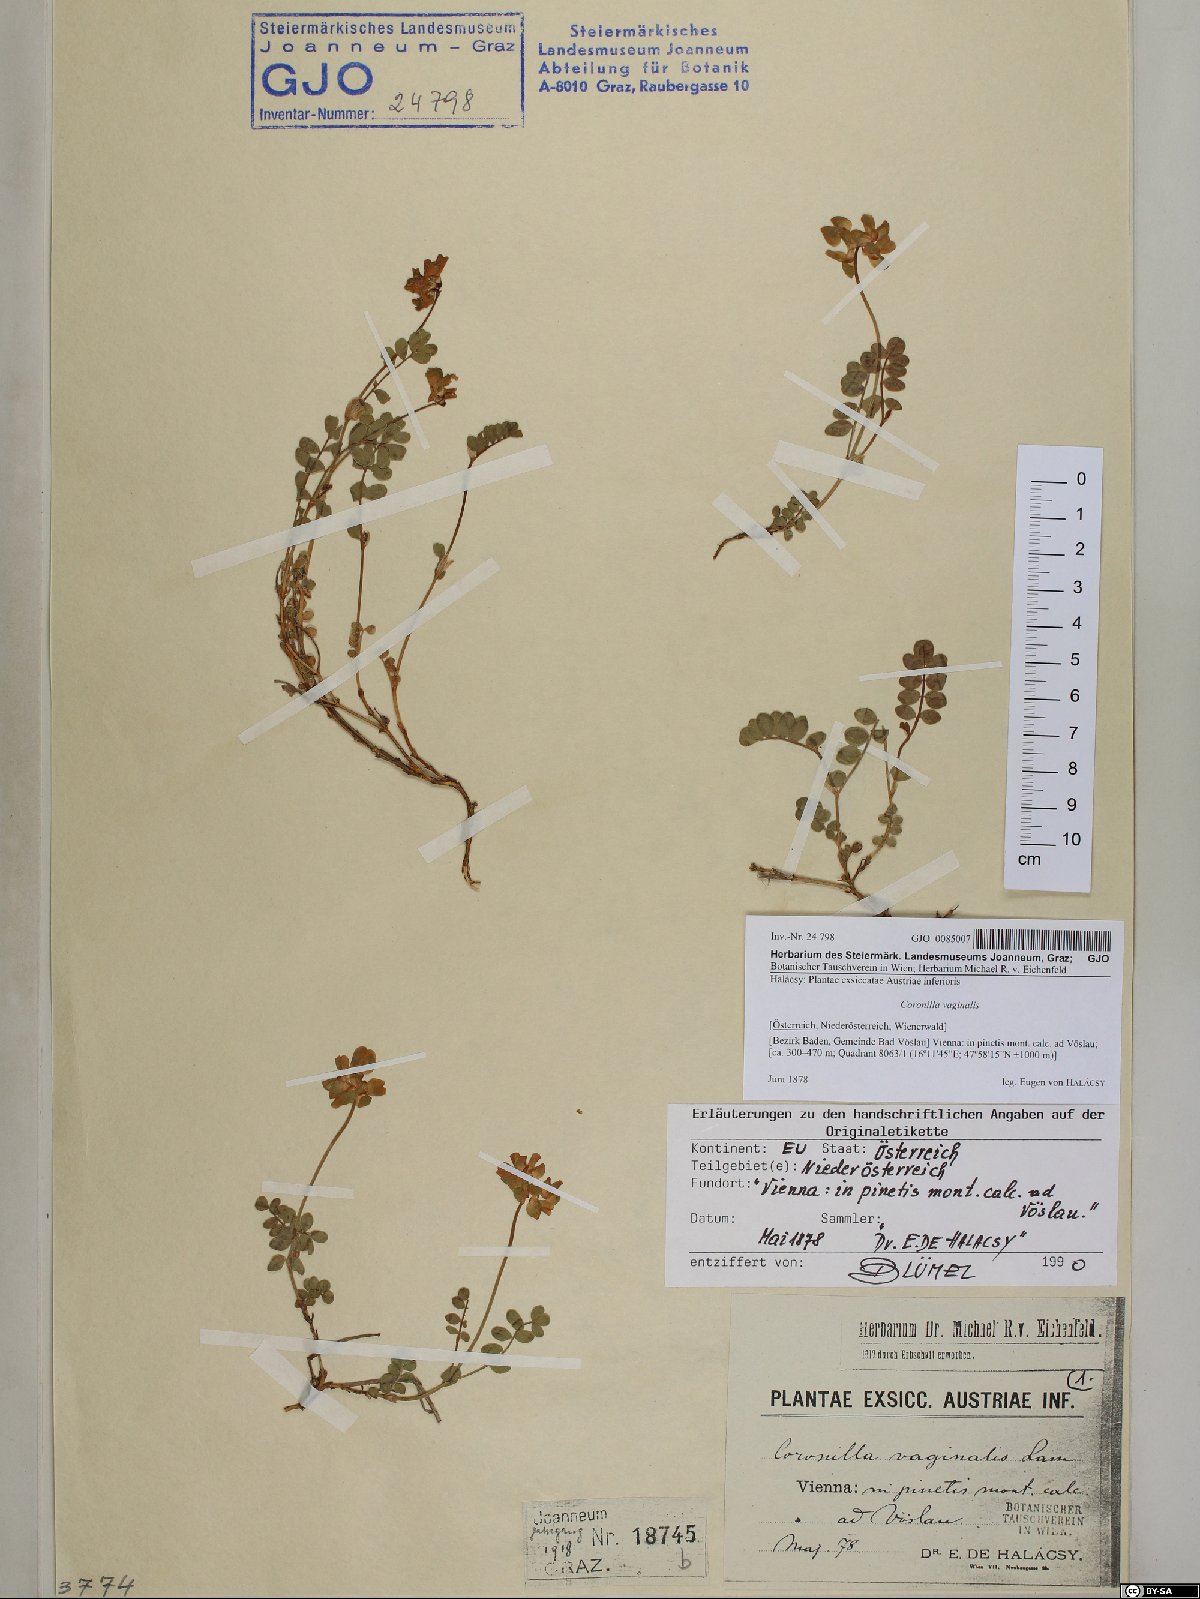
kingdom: Plantae
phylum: Tracheophyta
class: Magnoliopsida
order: Fabales
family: Fabaceae
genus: Coronilla
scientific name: Coronilla vaginalis
